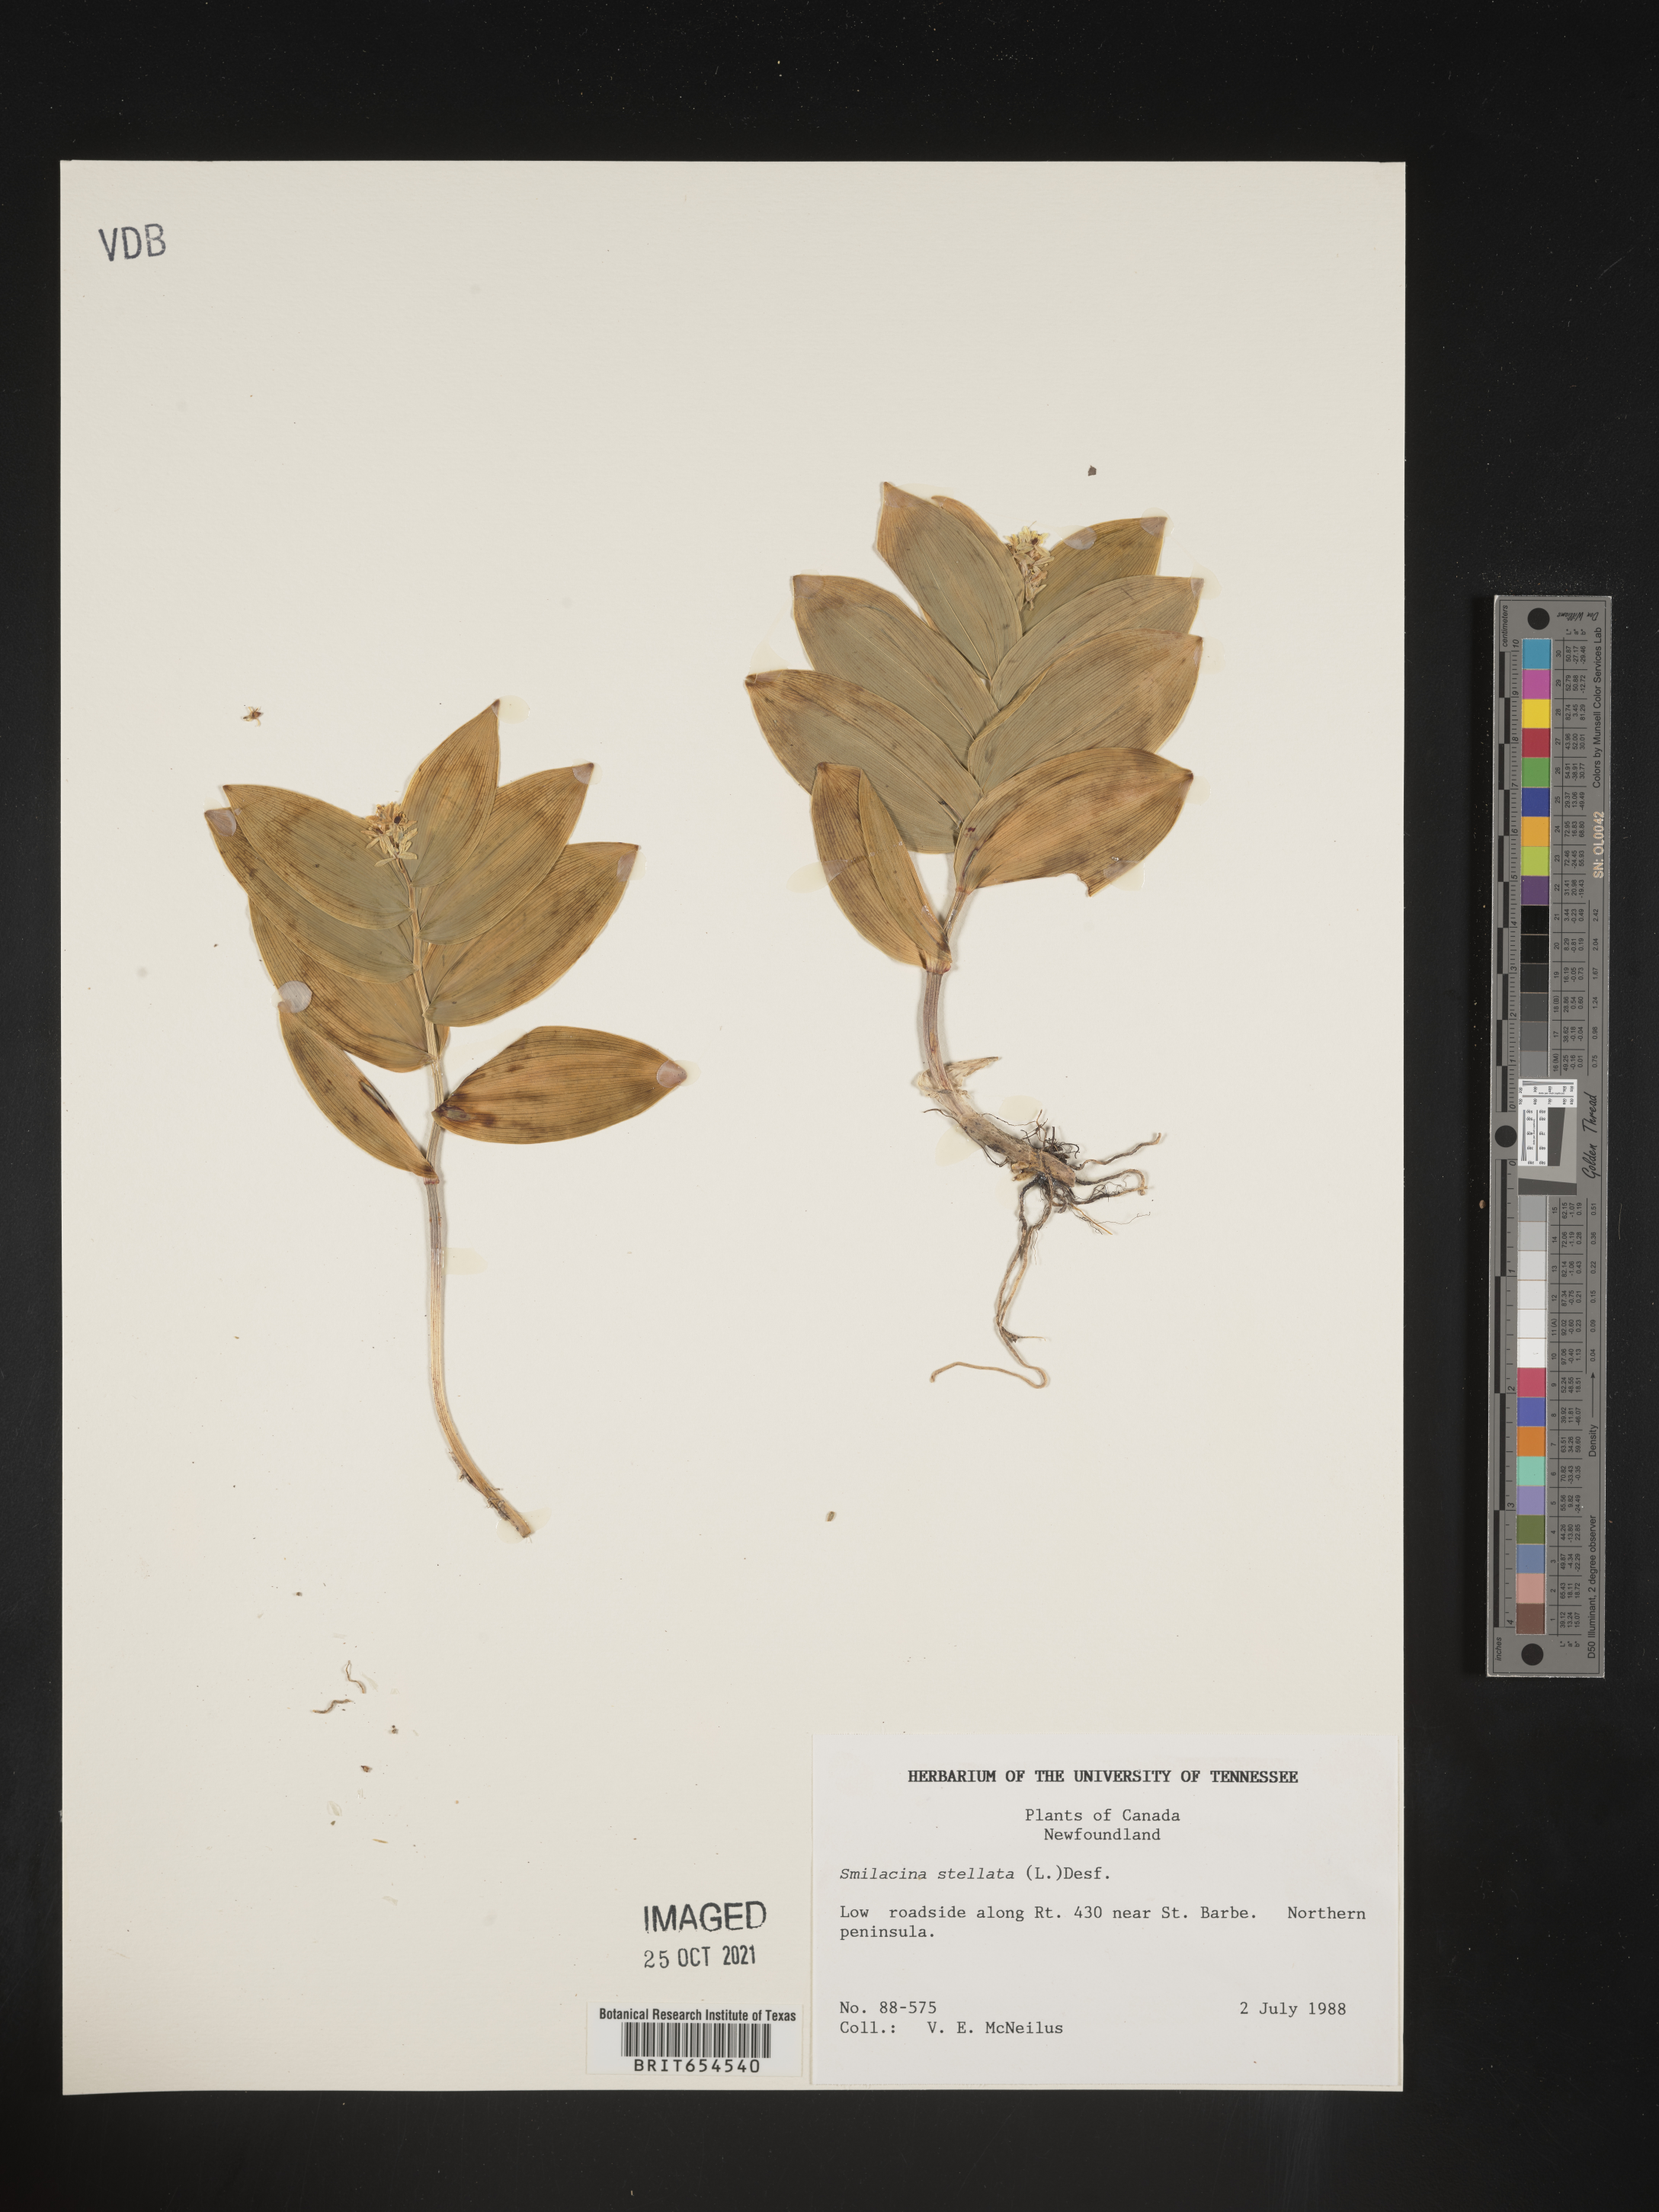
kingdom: Plantae
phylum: Tracheophyta
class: Liliopsida
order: Asparagales
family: Asparagaceae
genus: Maianthemum
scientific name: Maianthemum stellatum
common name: Little false solomon's seal
